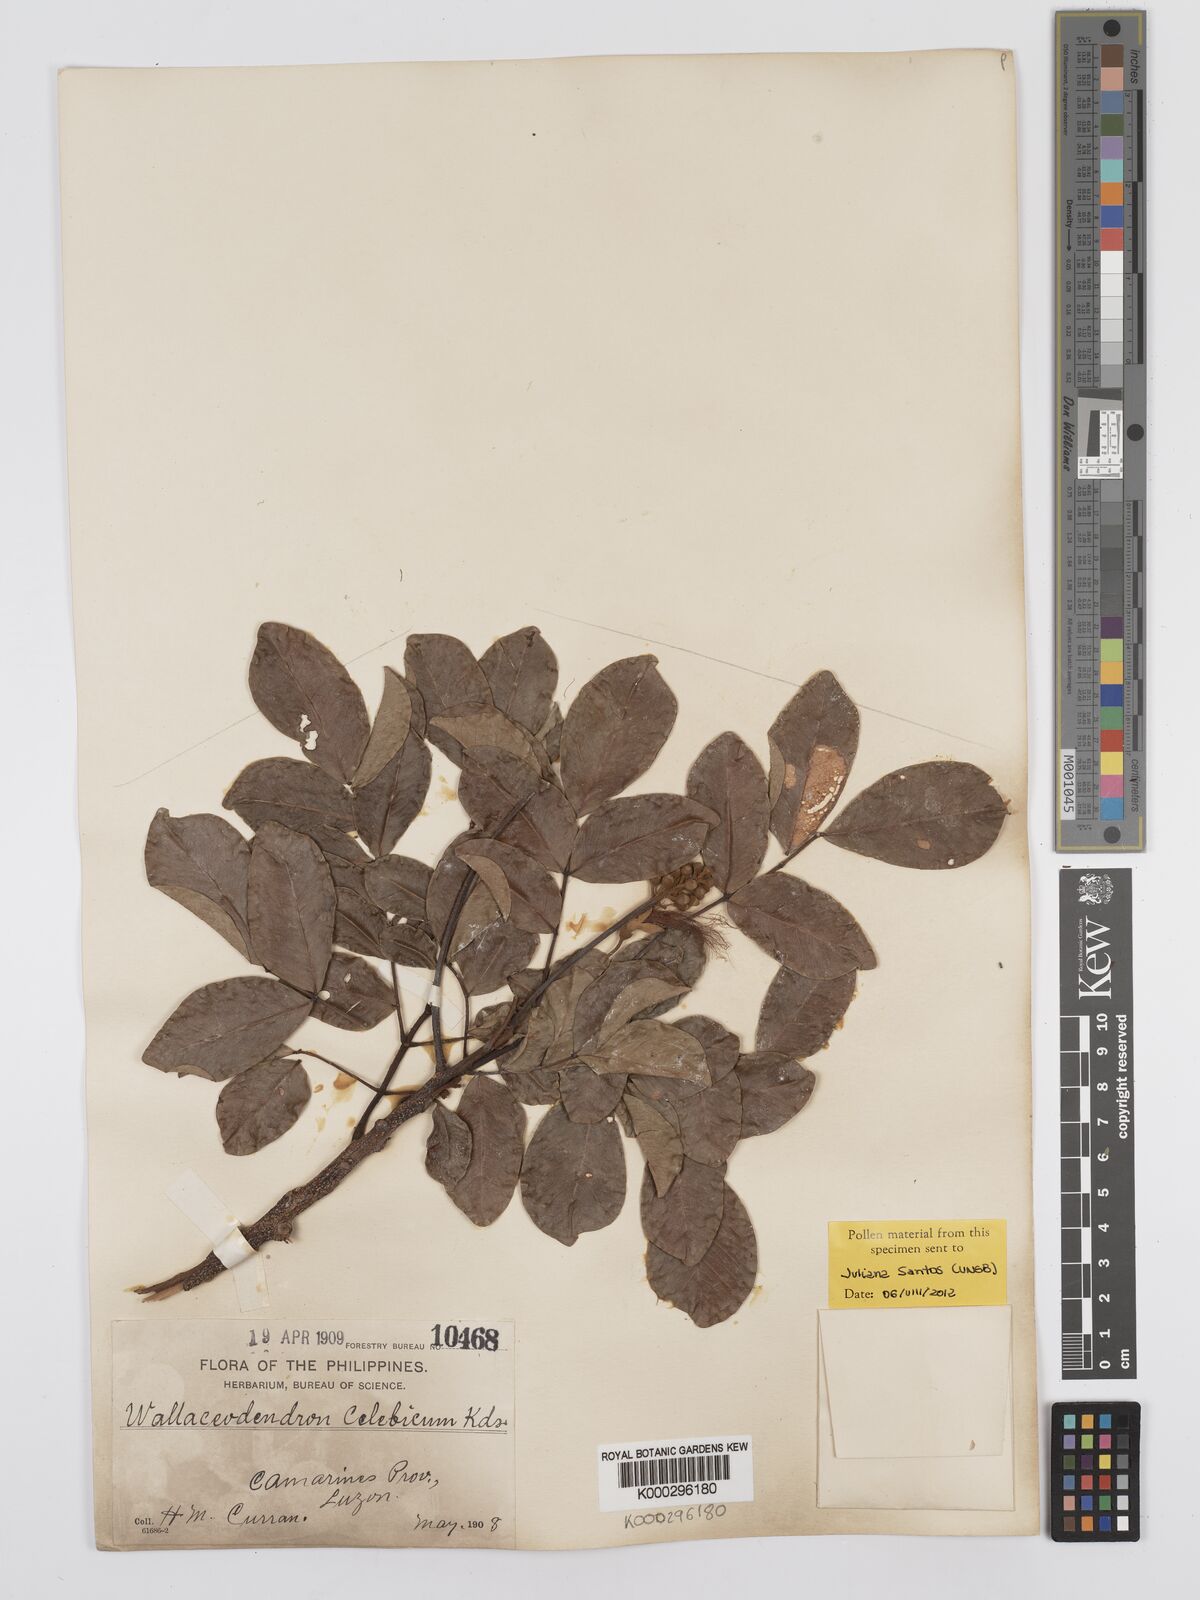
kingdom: Plantae
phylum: Tracheophyta
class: Magnoliopsida
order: Fabales
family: Fabaceae
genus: Wallaceodendron
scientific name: Wallaceodendron celebicum
